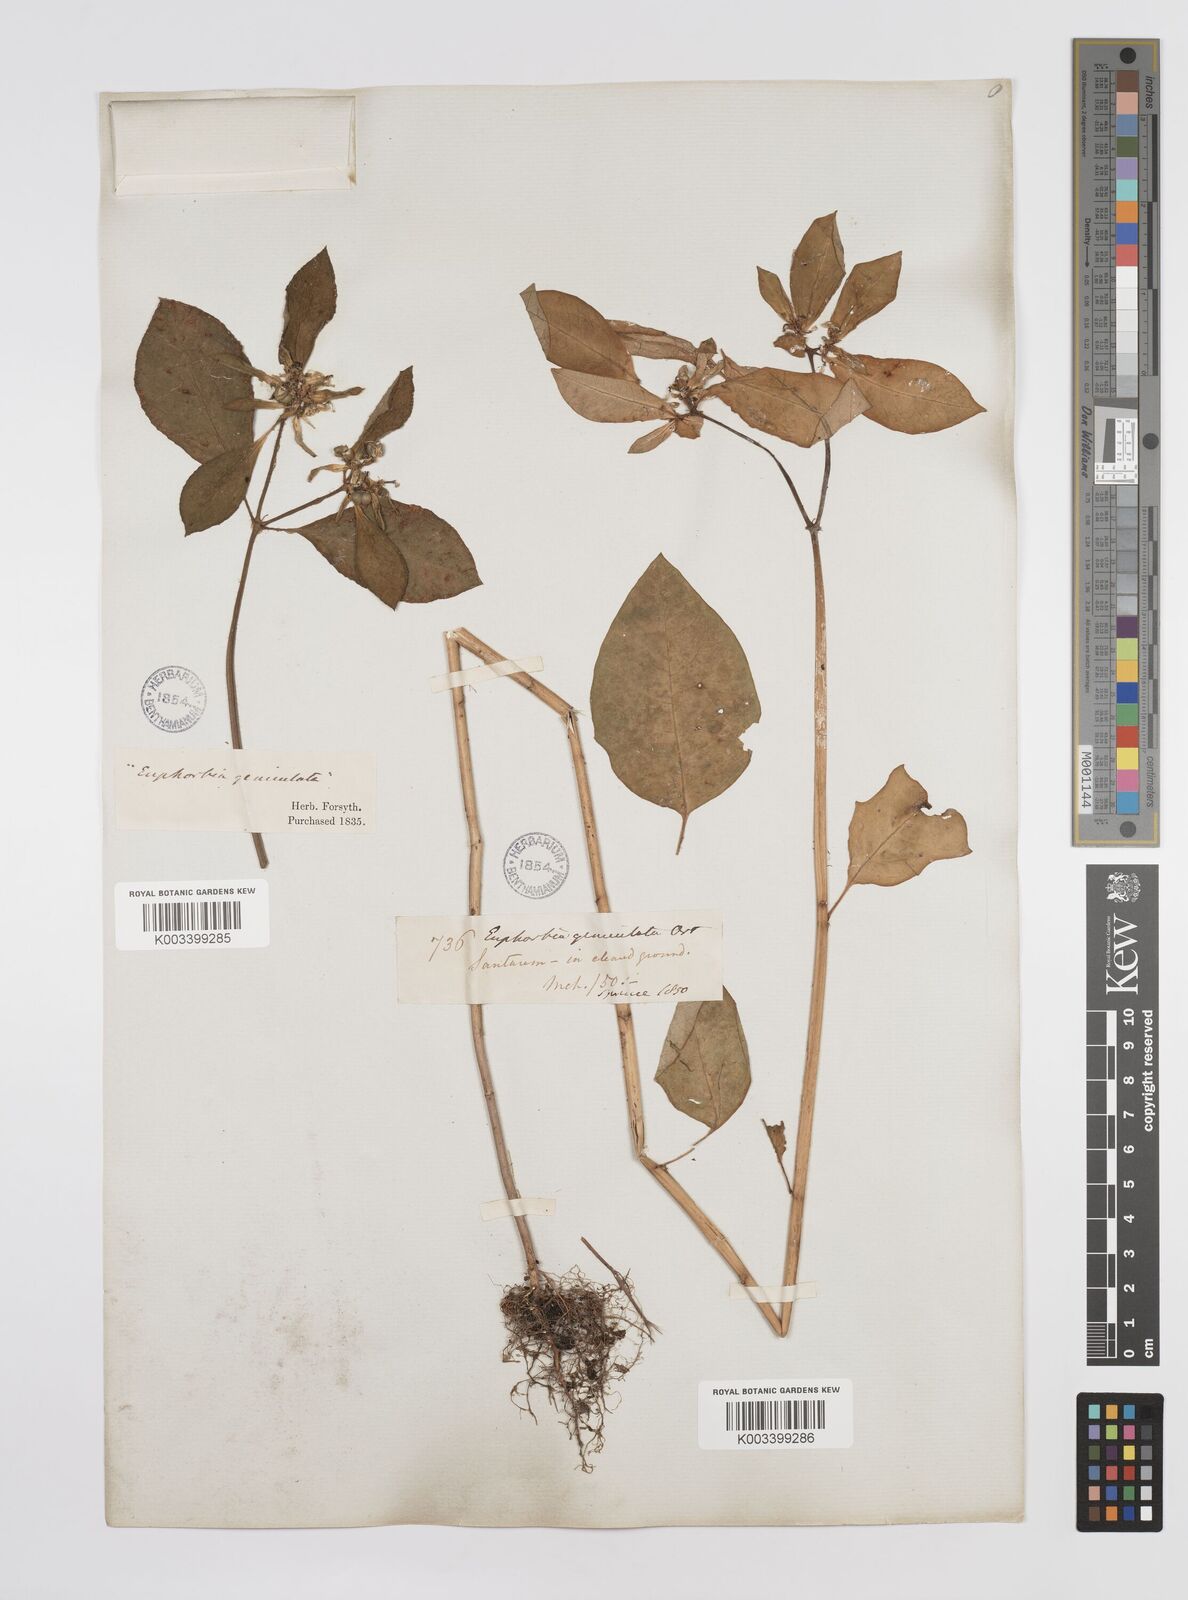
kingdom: Plantae
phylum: Tracheophyta
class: Magnoliopsida
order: Malpighiales
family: Euphorbiaceae
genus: Euphorbia
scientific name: Euphorbia heterophylla
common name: Mexican fireplant
